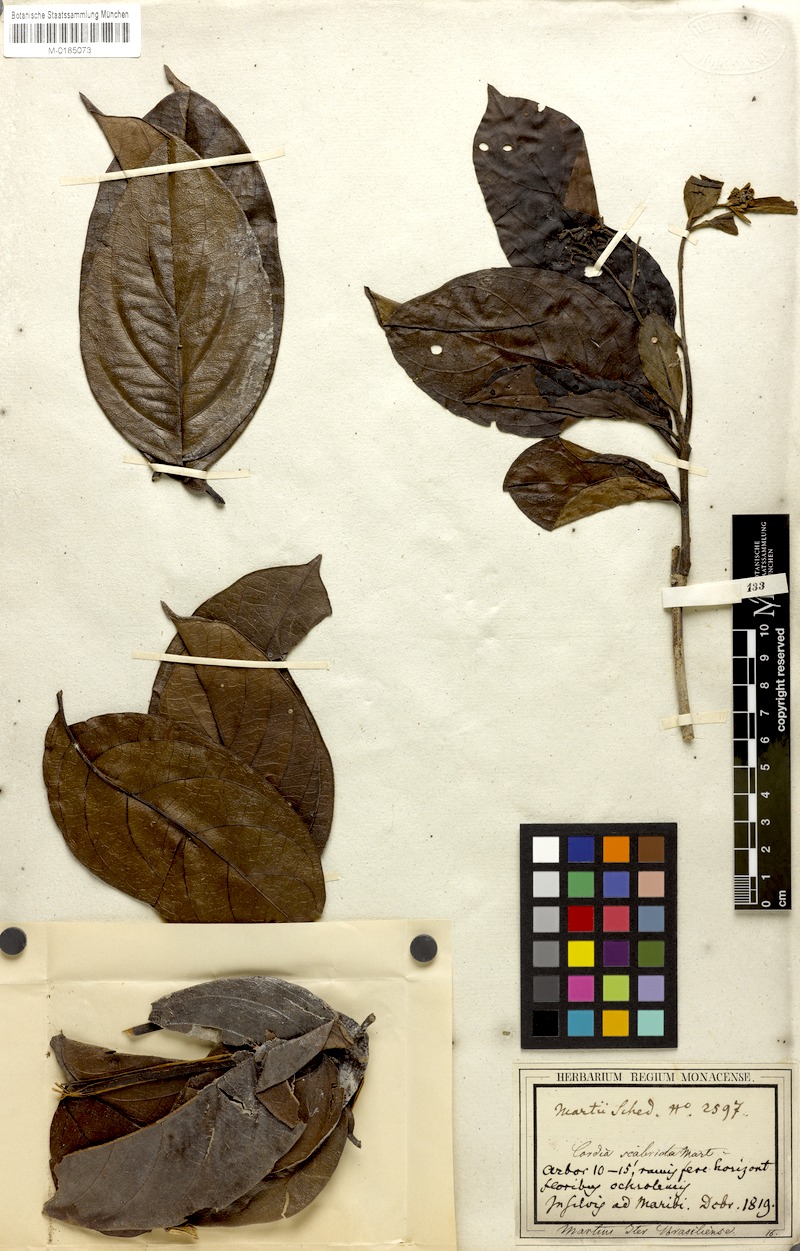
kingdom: Plantae
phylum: Tracheophyta
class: Magnoliopsida
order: Boraginales
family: Cordiaceae
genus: Cordia
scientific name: Cordia exaltata
